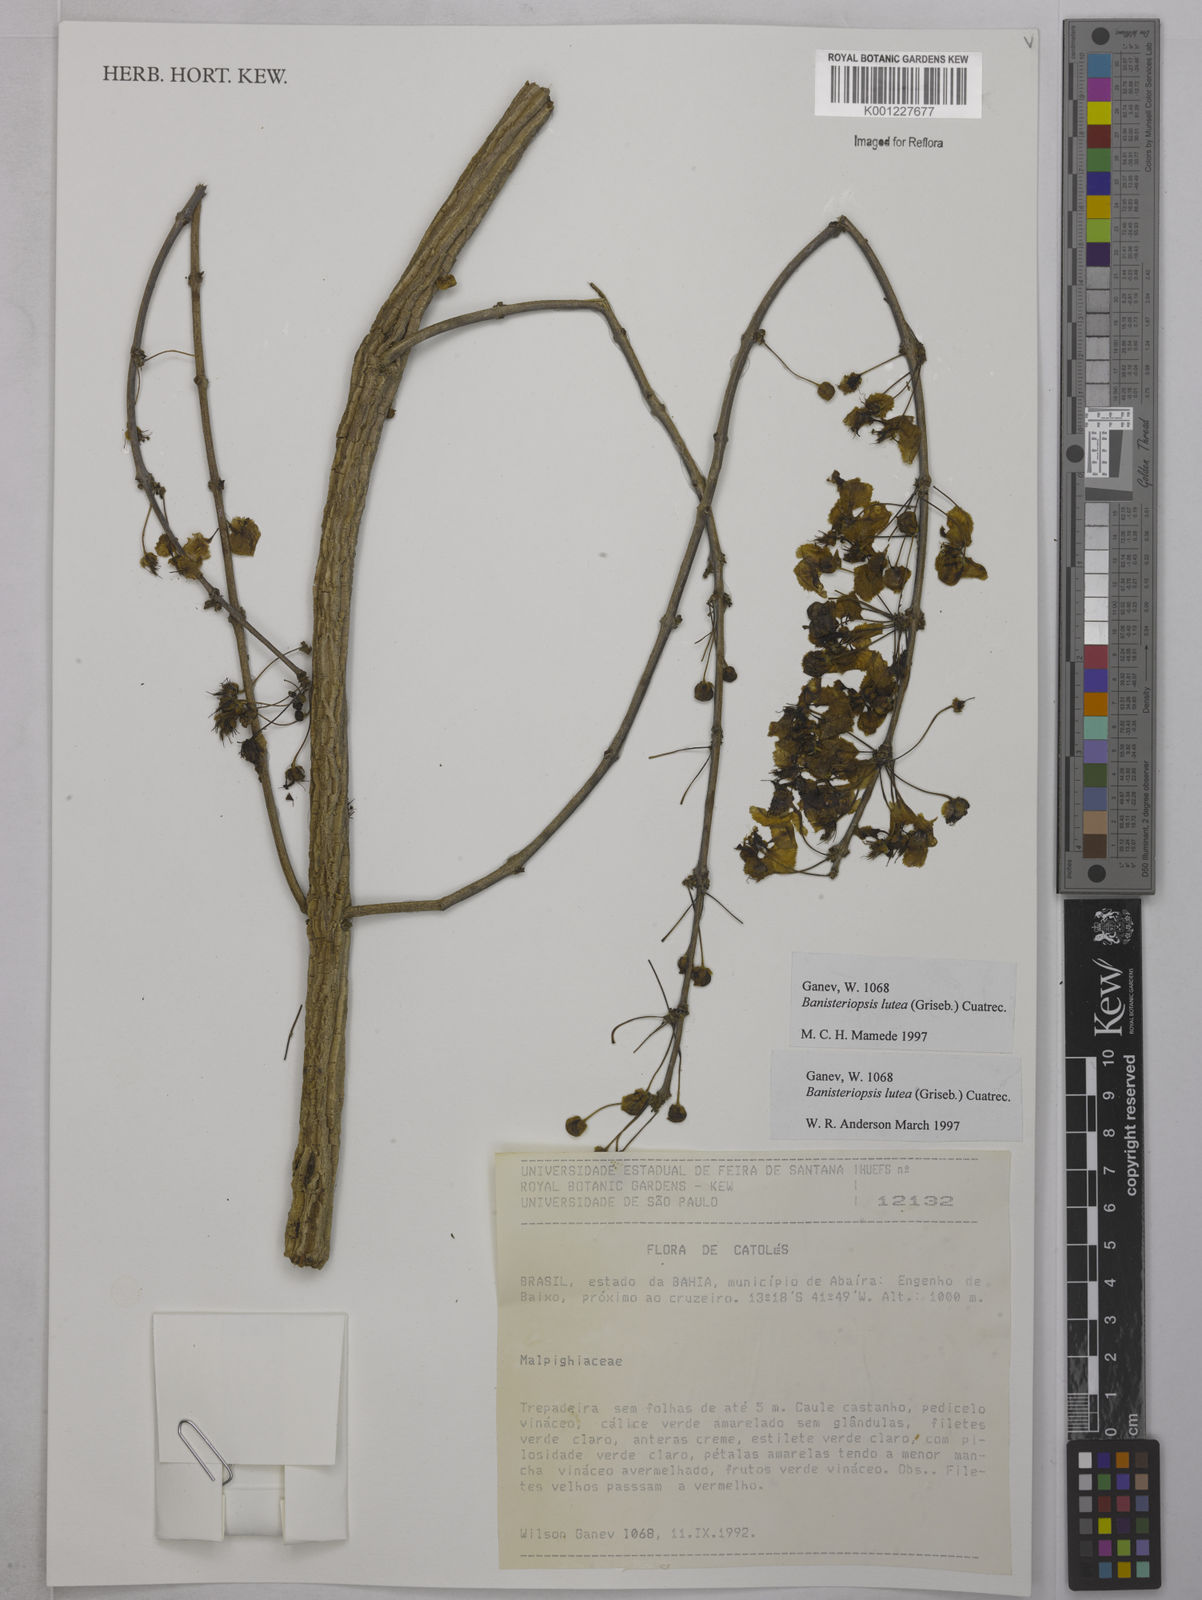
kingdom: Plantae
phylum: Tracheophyta
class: Magnoliopsida
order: Malpighiales
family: Malpighiaceae
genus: Diplopterys
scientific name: Diplopterys lutea
